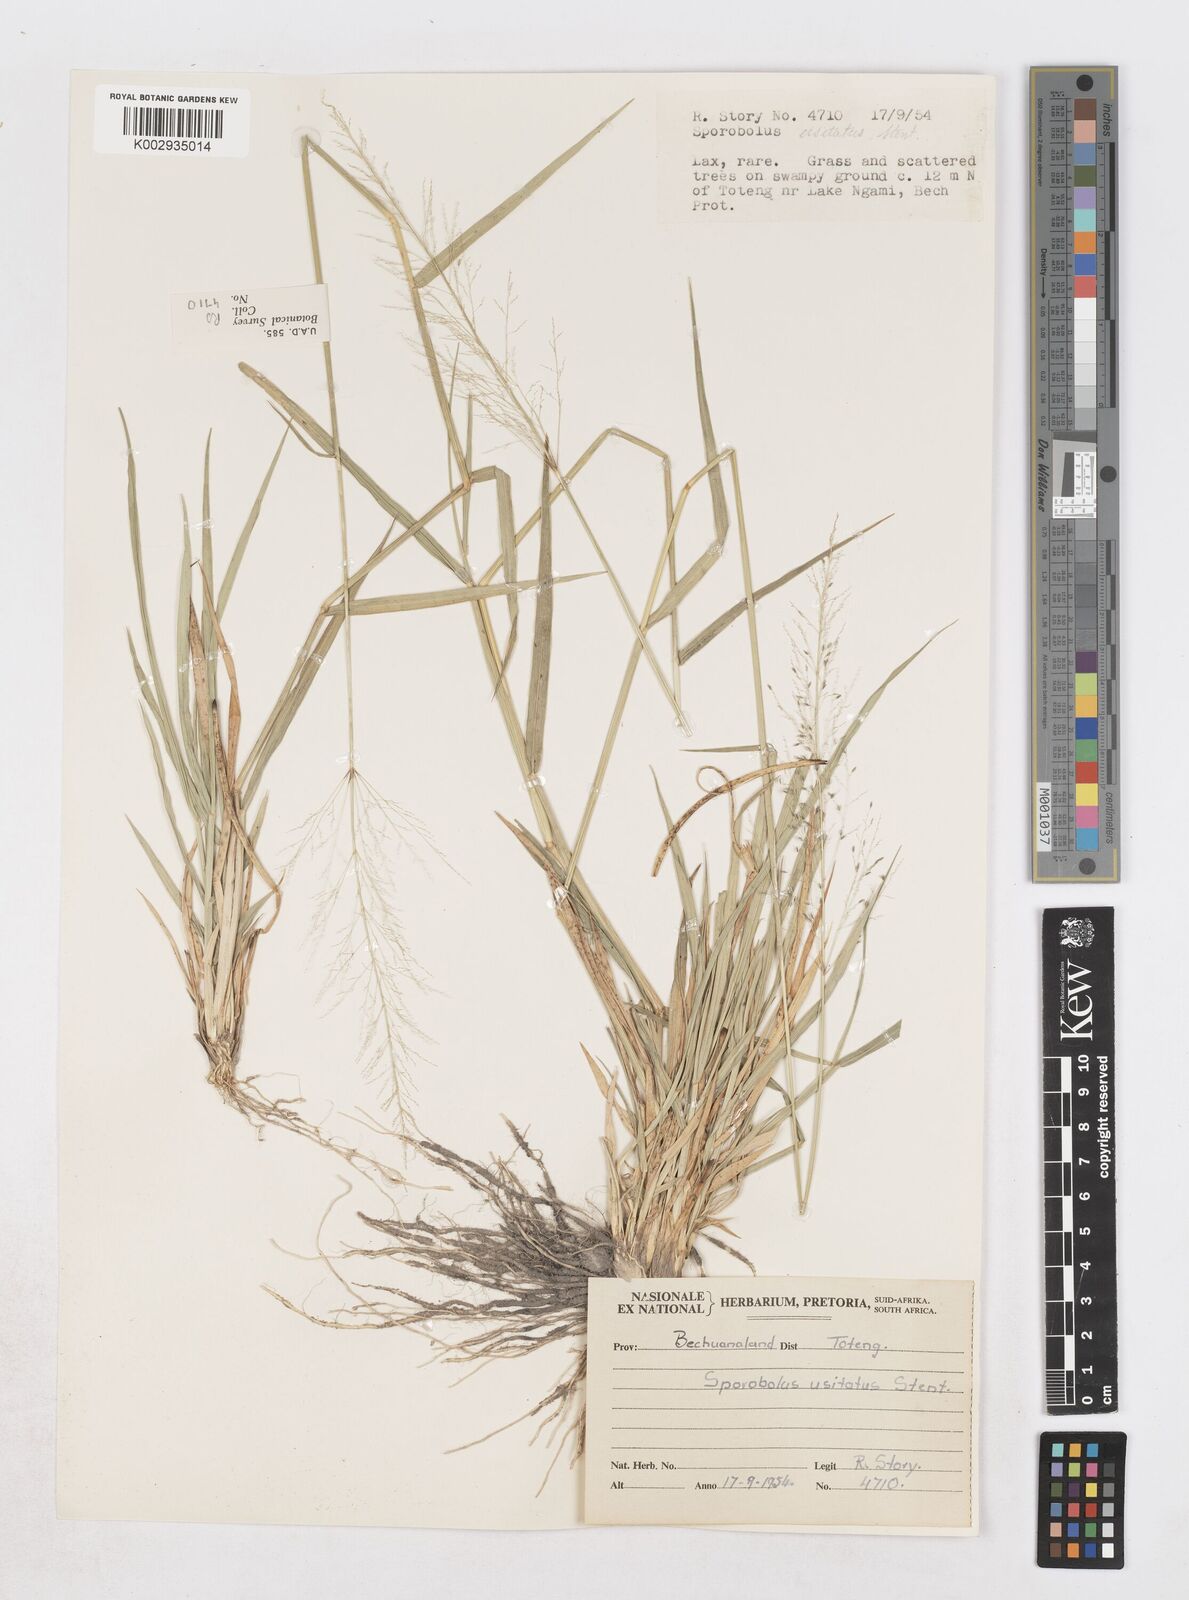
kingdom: Plantae
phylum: Tracheophyta
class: Liliopsida
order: Poales
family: Poaceae
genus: Sporobolus
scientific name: Sporobolus ioclados
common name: Pan dropseed
